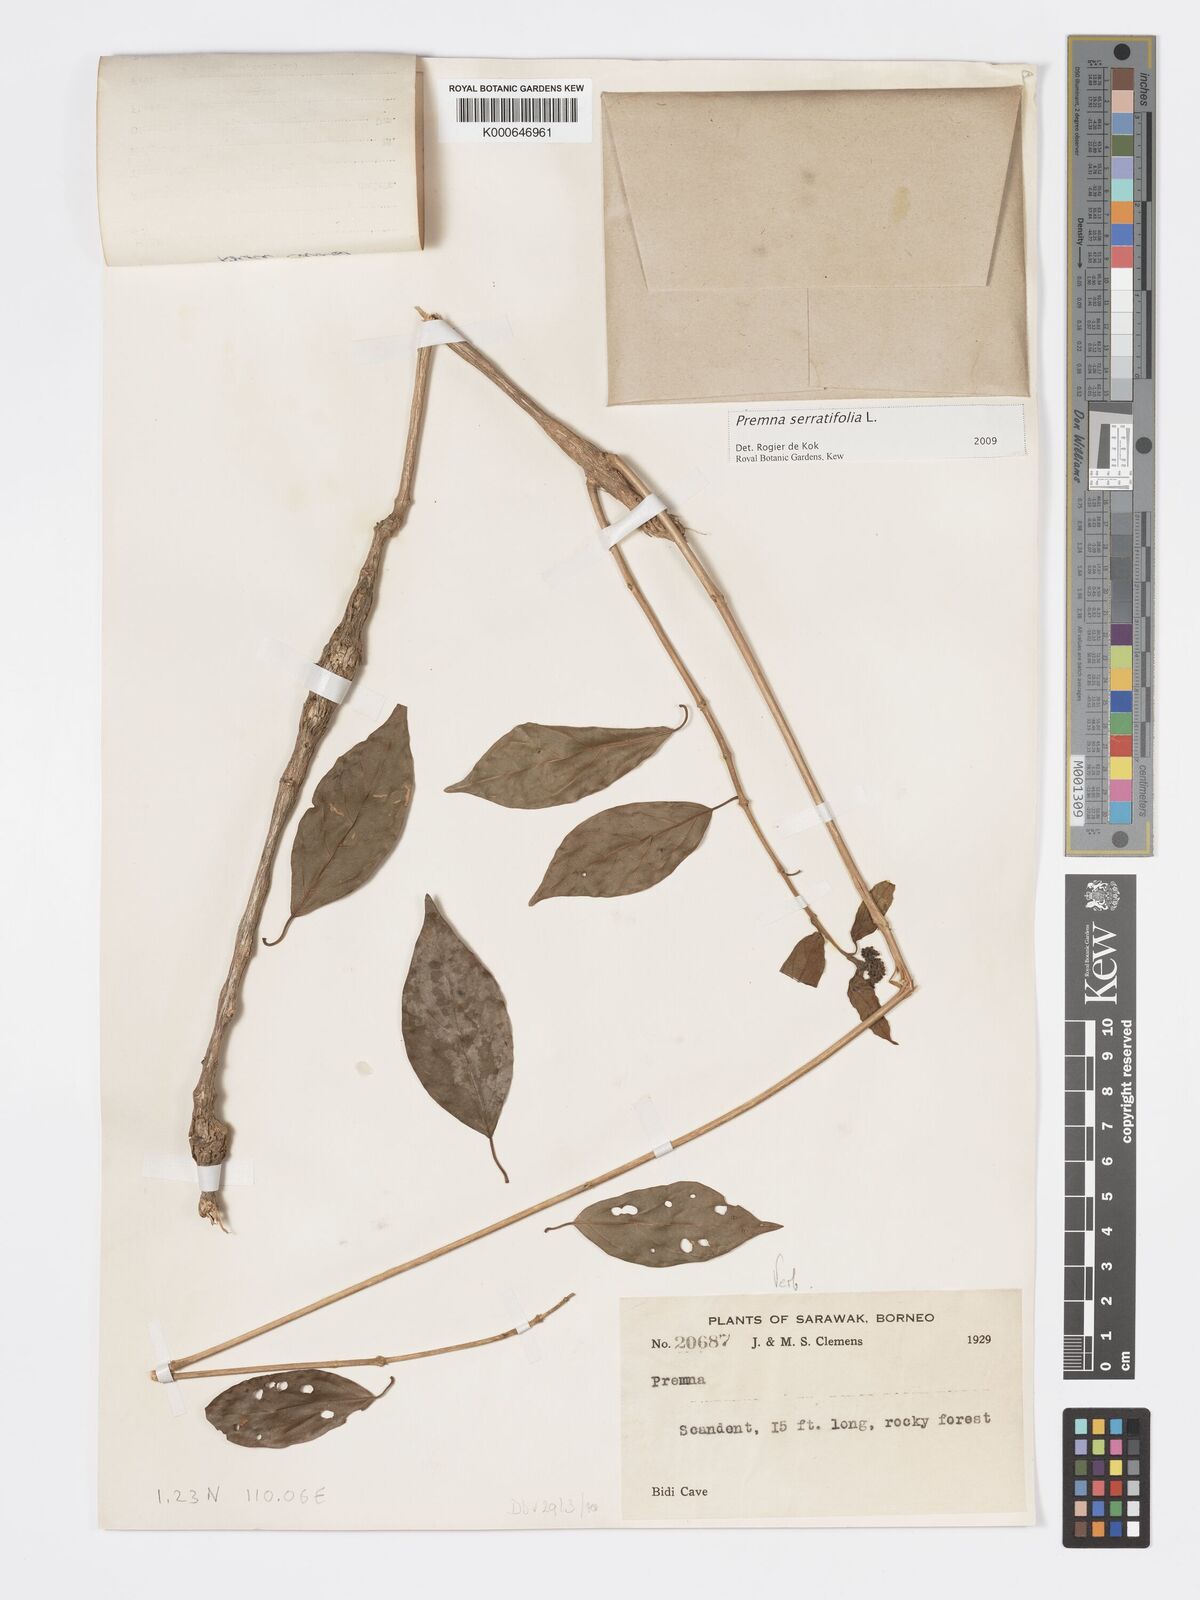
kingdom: Plantae
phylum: Tracheophyta
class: Magnoliopsida
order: Lamiales
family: Lamiaceae
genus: Premna
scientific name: Premna serratifolia
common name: Bastard guelder
